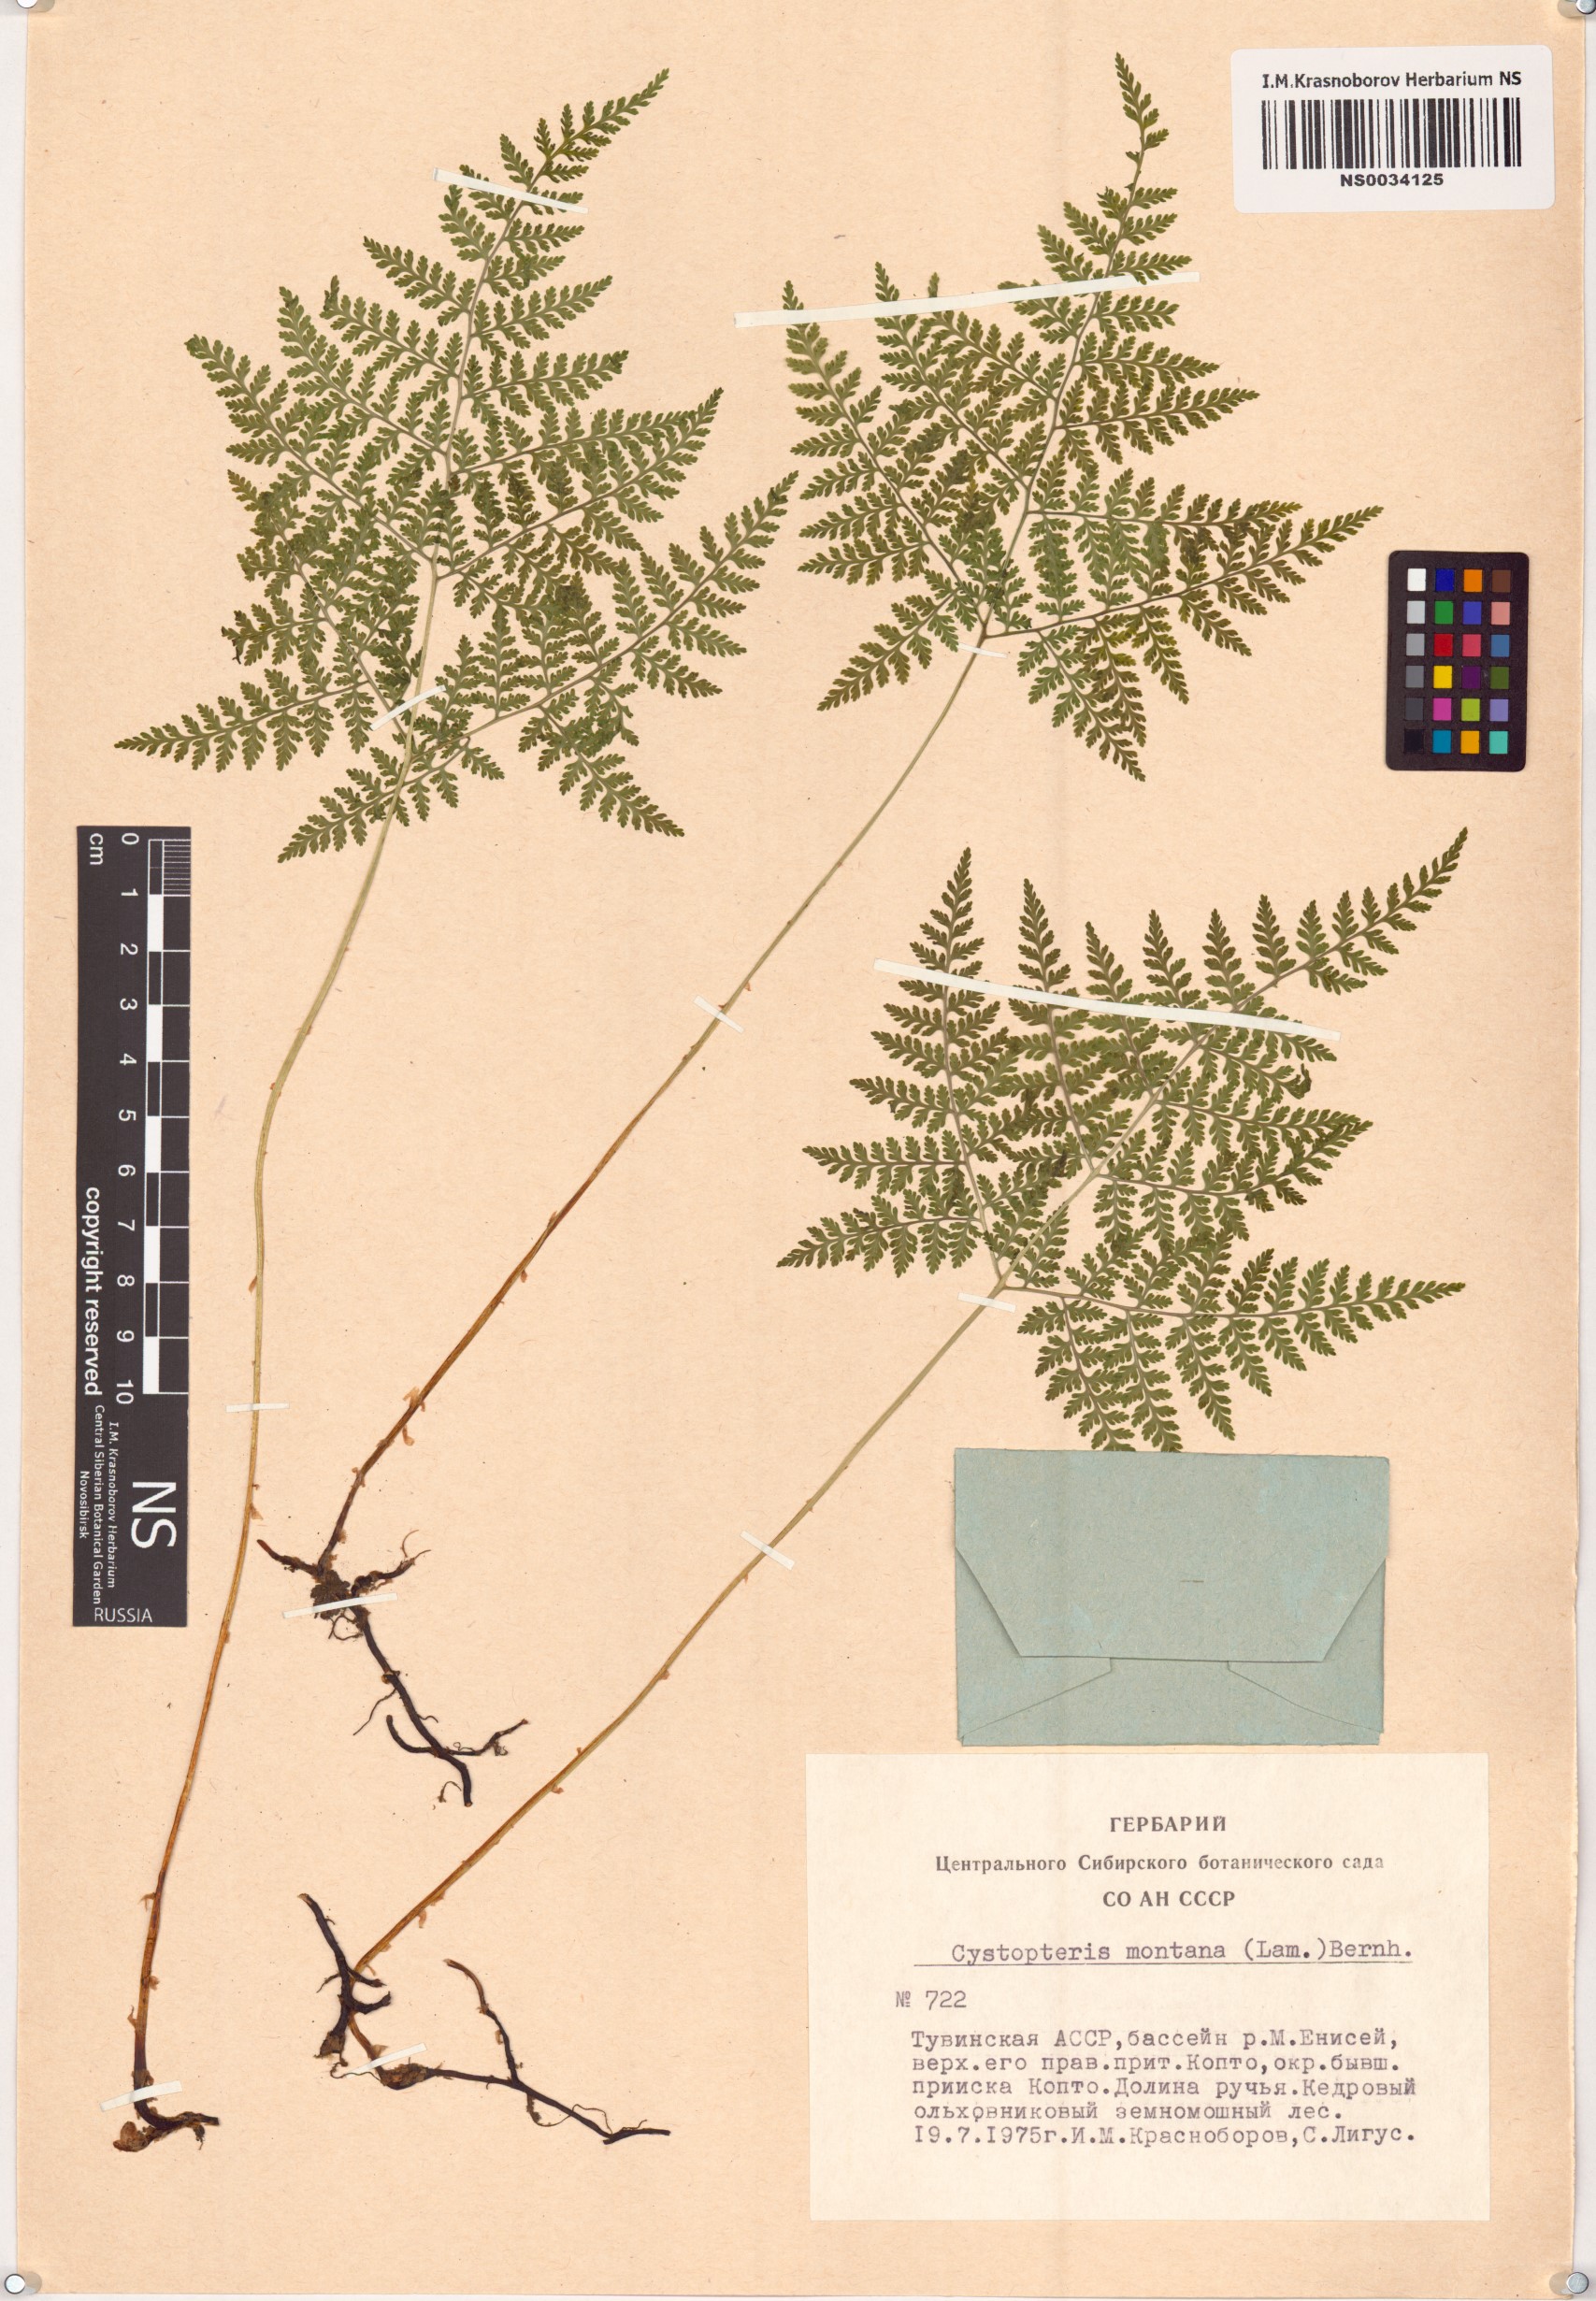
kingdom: Plantae
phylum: Tracheophyta
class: Polypodiopsida
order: Polypodiales
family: Cystopteridaceae
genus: Cystopteris
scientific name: Cystopteris montana
